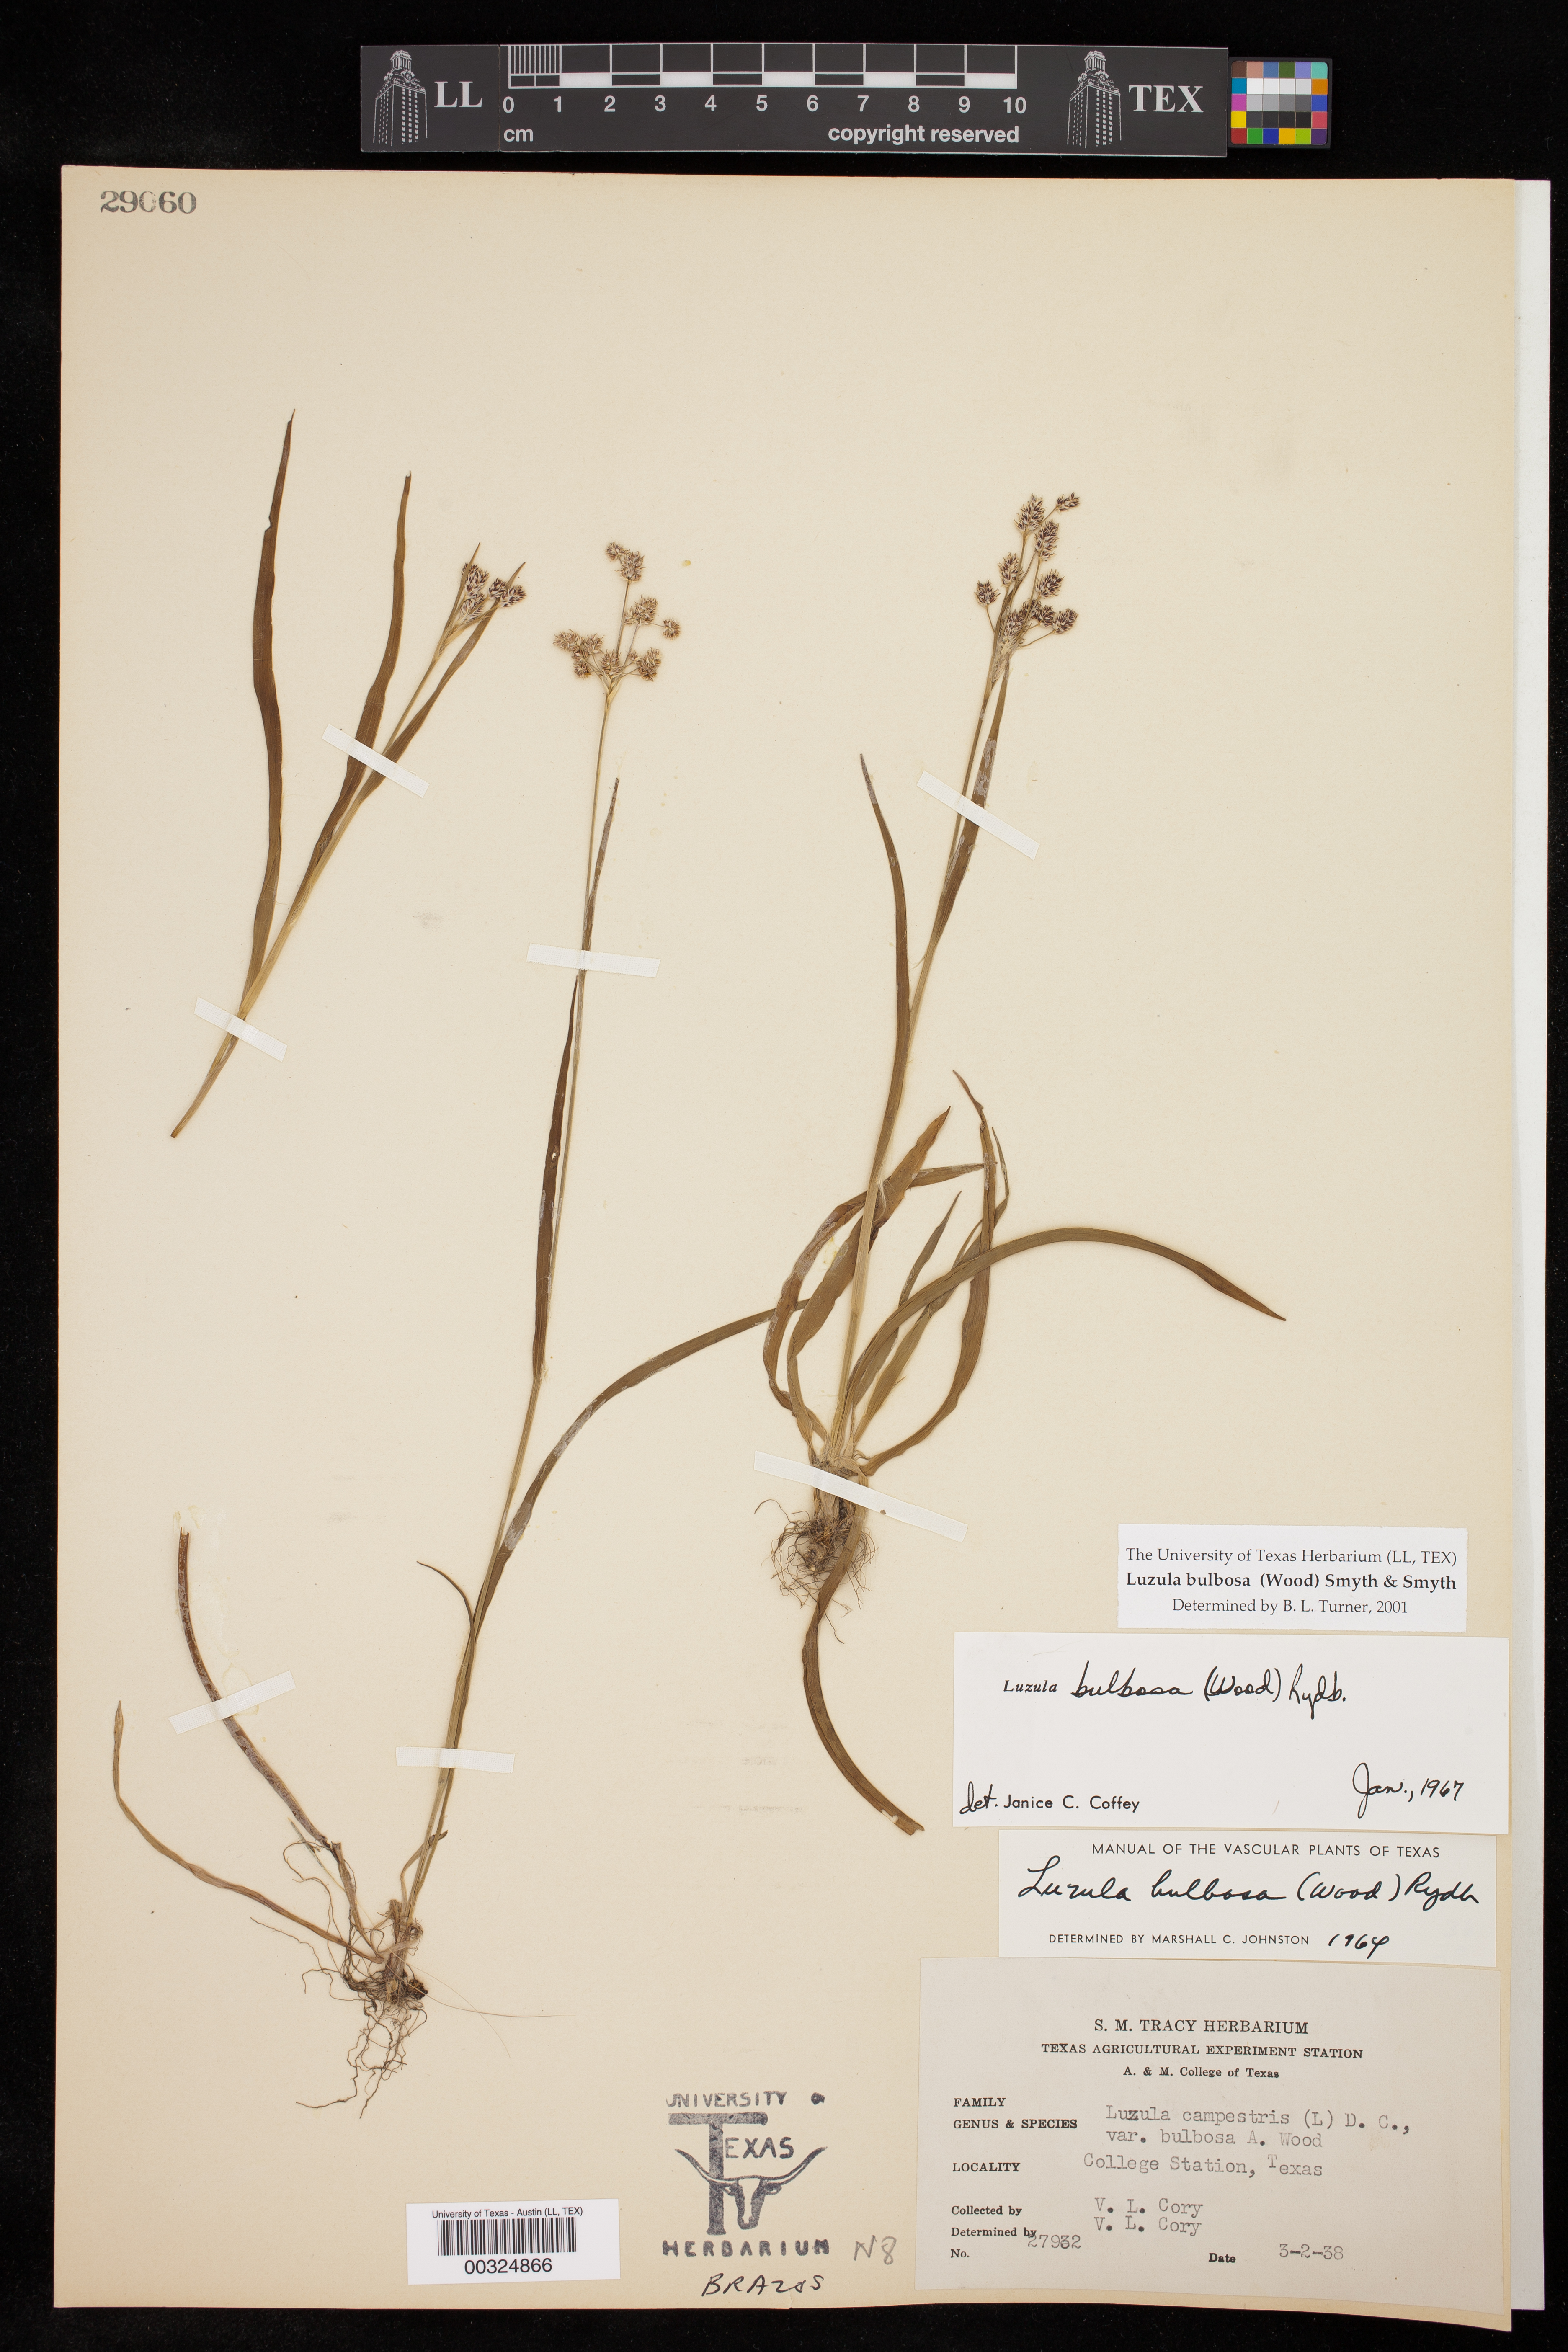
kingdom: Plantae
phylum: Tracheophyta
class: Liliopsida
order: Poales
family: Juncaceae
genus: Luzula
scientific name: Luzula bulbosa
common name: Bulbous woodrush
